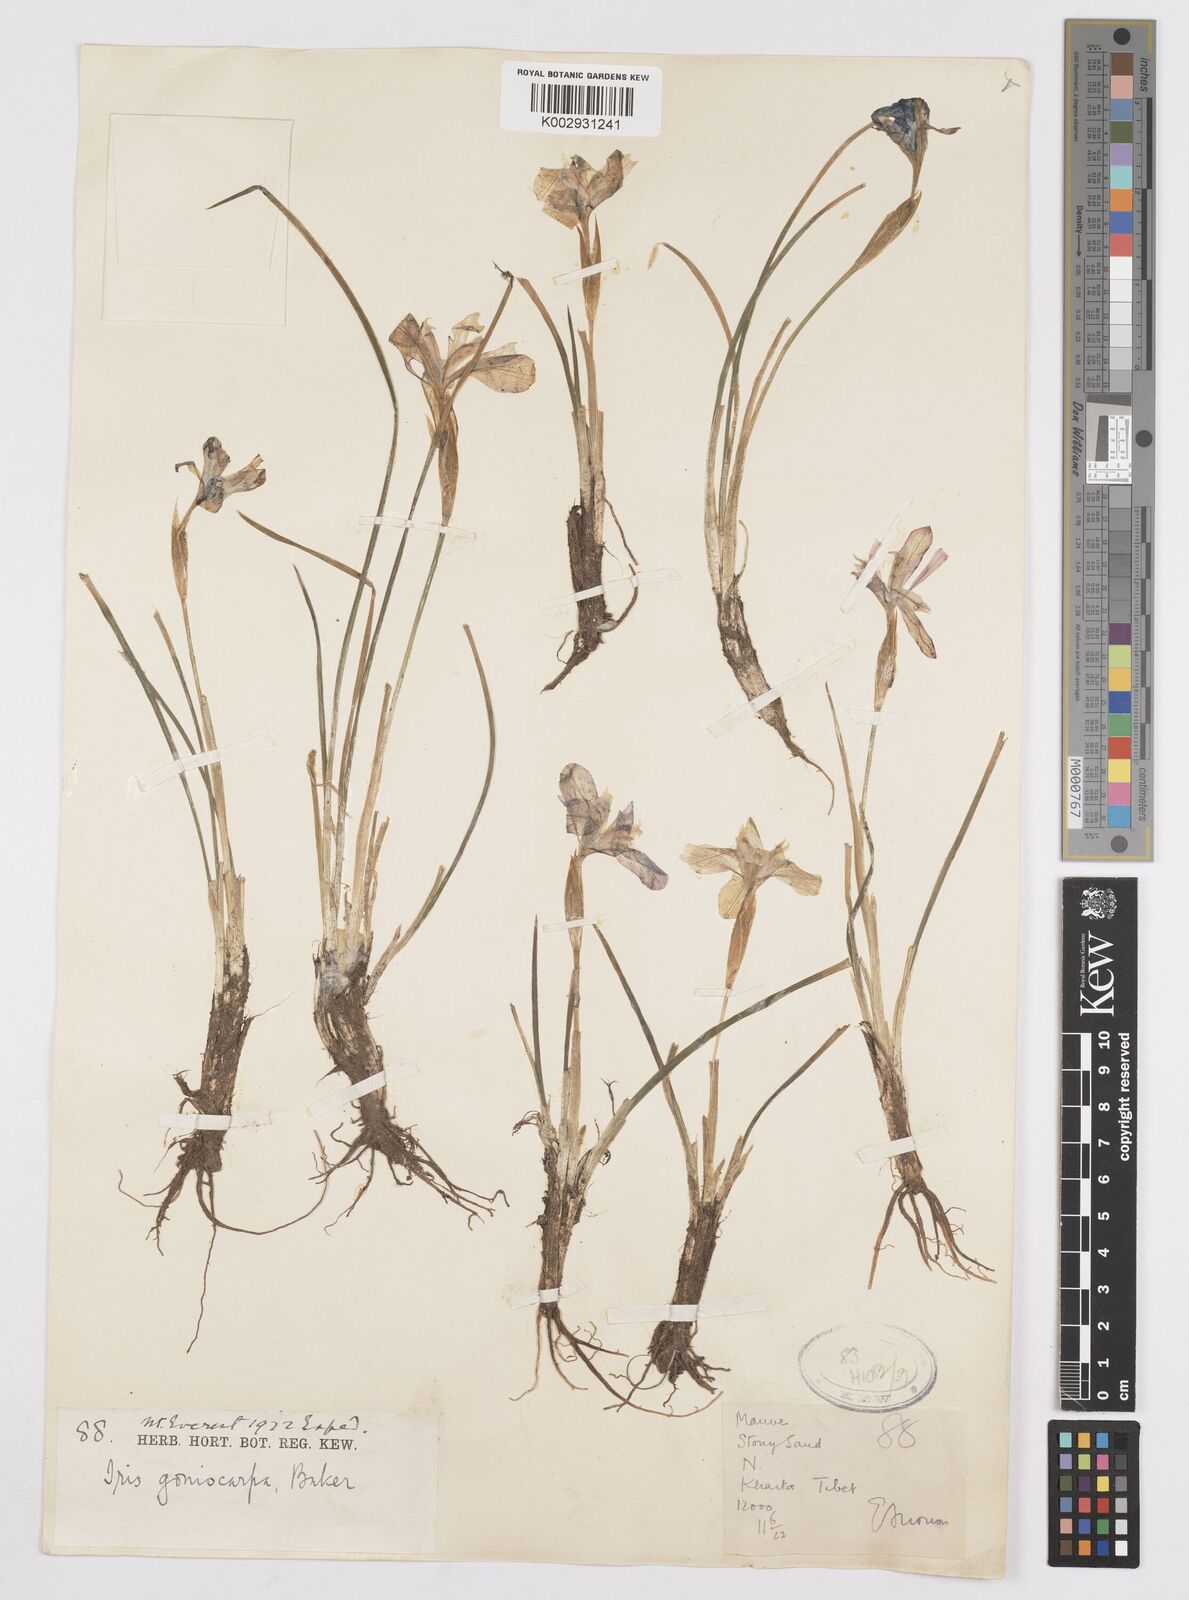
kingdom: Plantae
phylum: Tracheophyta
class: Liliopsida
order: Asparagales
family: Iridaceae
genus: Iris
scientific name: Iris goniocarpa
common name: Angular-fruit iris
